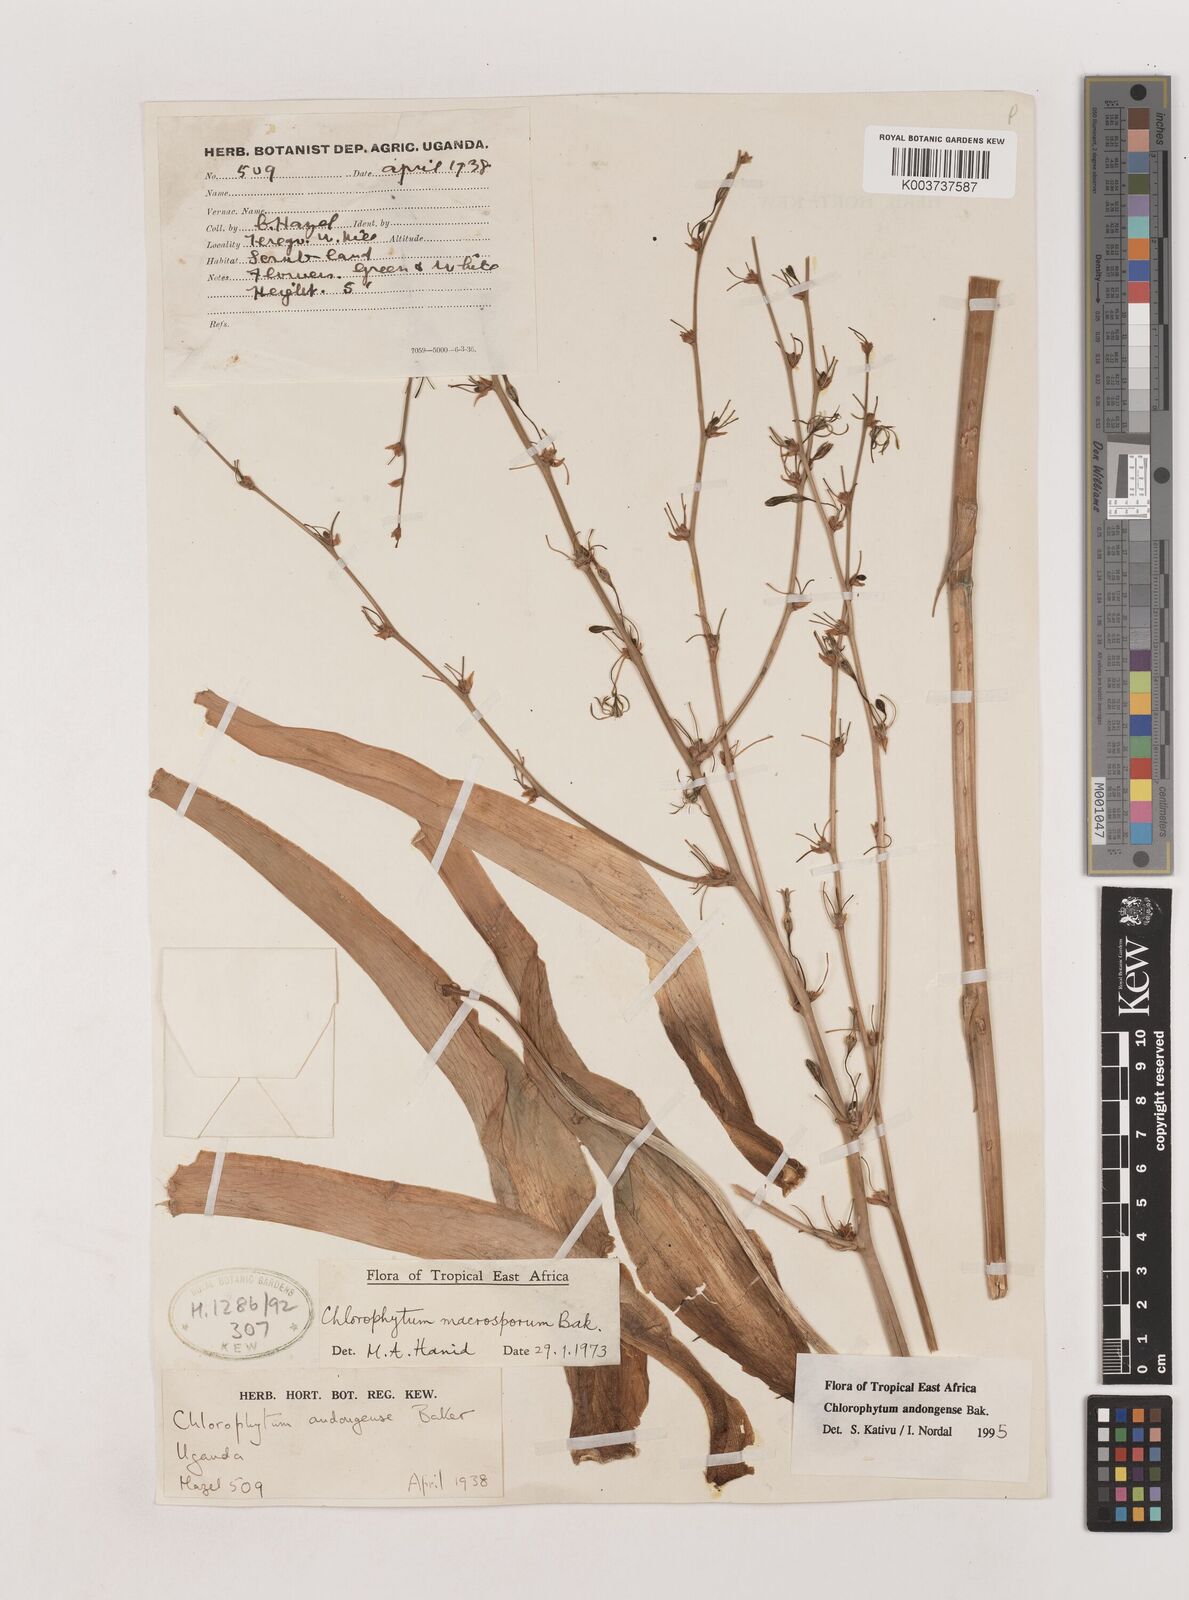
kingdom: Plantae
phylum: Tracheophyta
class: Liliopsida
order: Asparagales
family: Asparagaceae
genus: Chlorophytum
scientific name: Chlorophytum andongense
